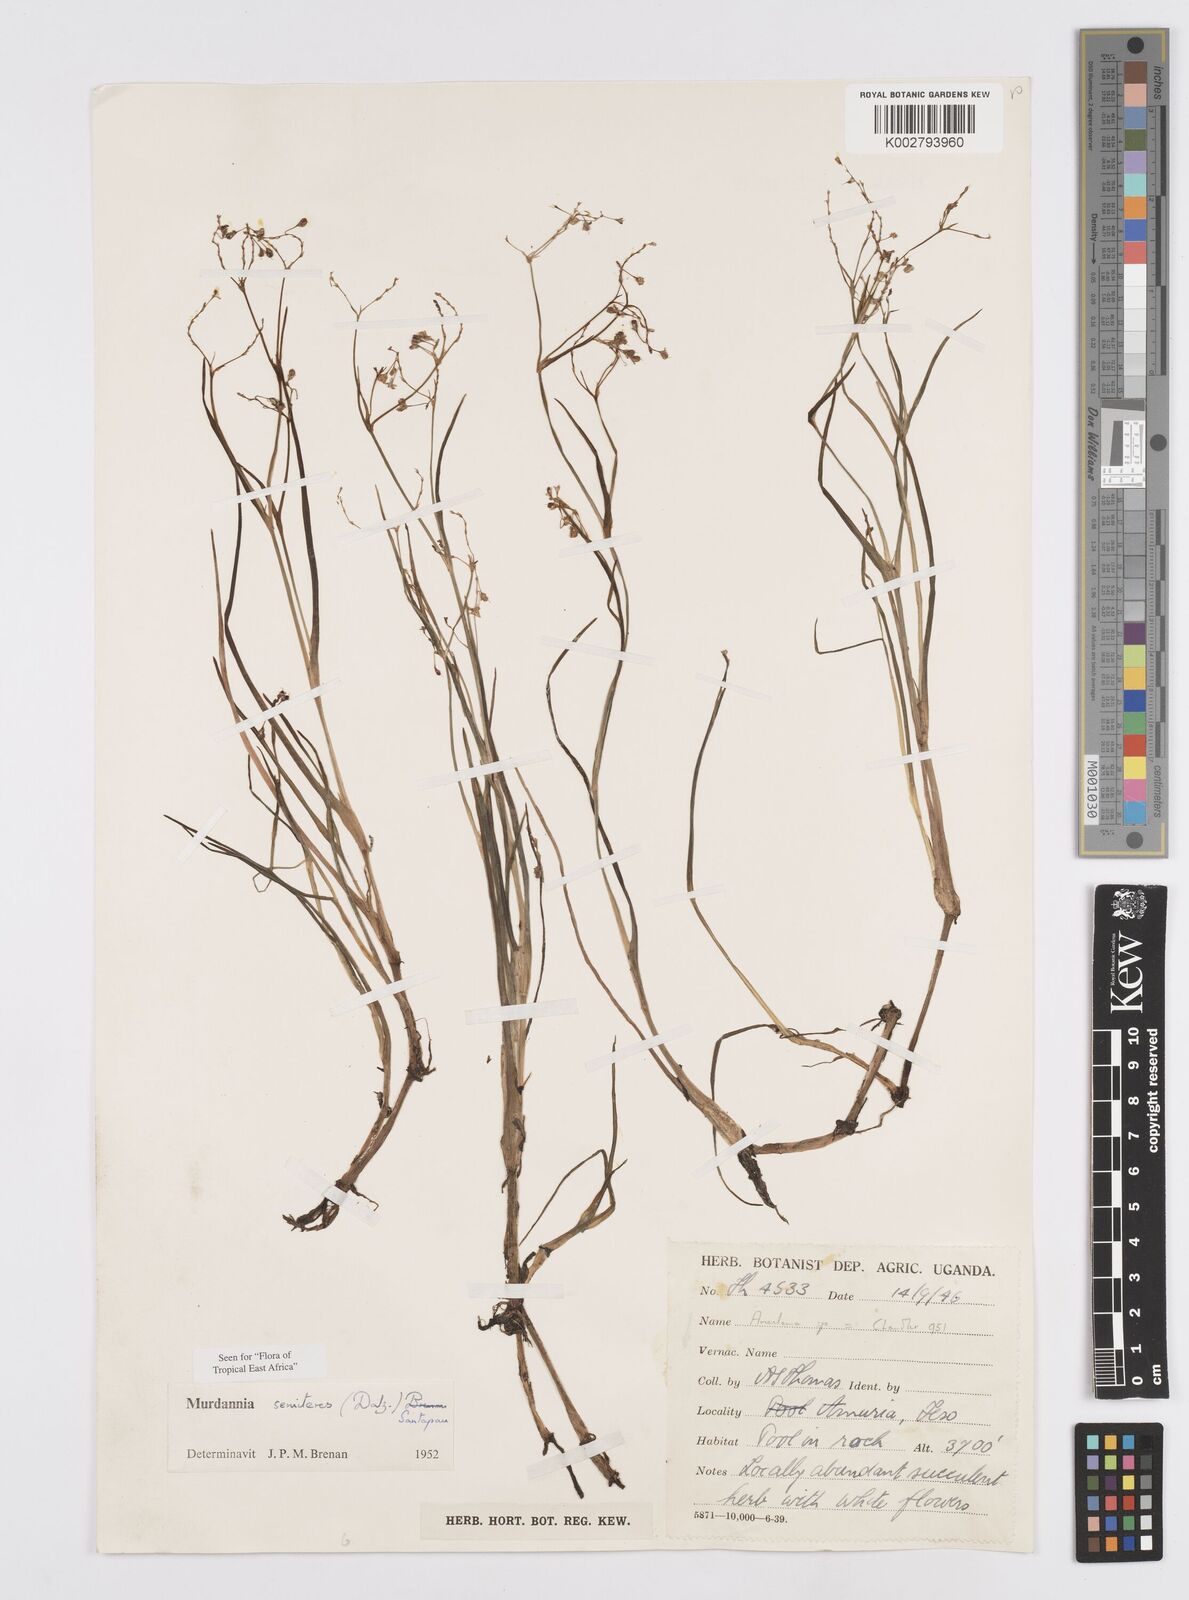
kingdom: Plantae
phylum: Tracheophyta
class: Liliopsida
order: Commelinales
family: Commelinaceae
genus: Murdannia
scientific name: Murdannia semiteres
